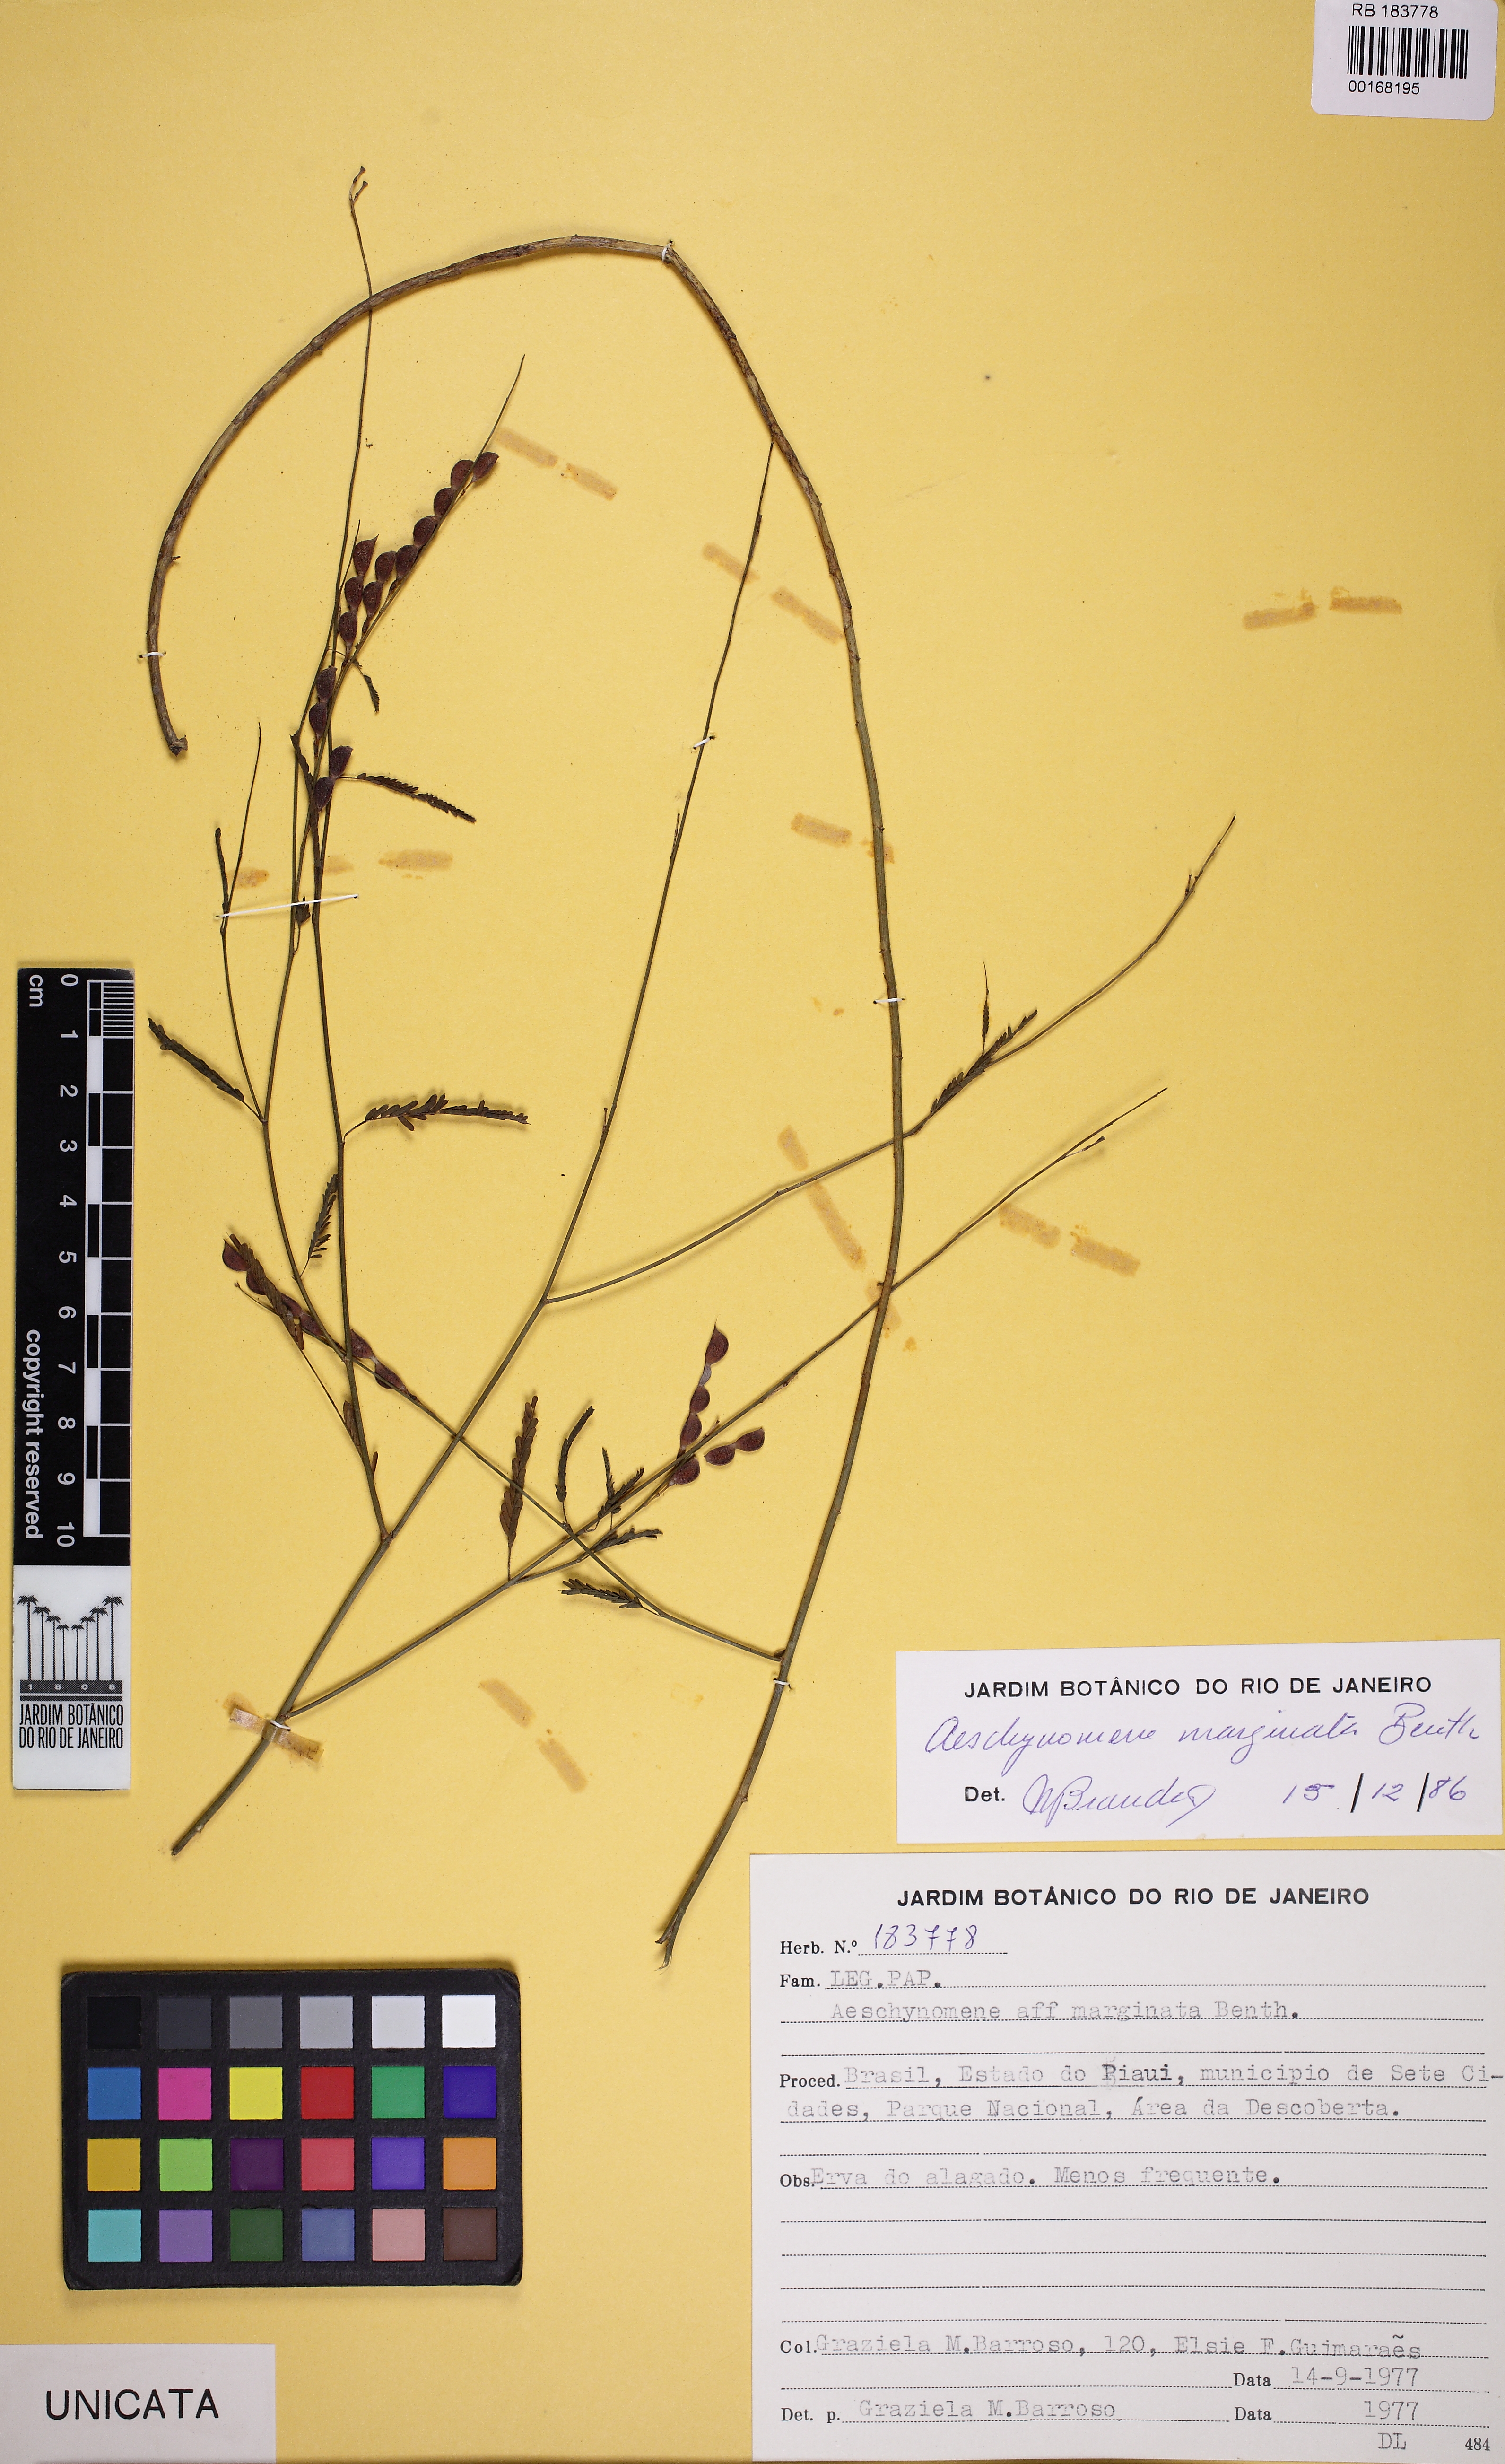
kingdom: Plantae
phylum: Tracheophyta
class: Magnoliopsida
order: Fabales
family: Fabaceae
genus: Ctenodon
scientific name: Ctenodon marginatus
